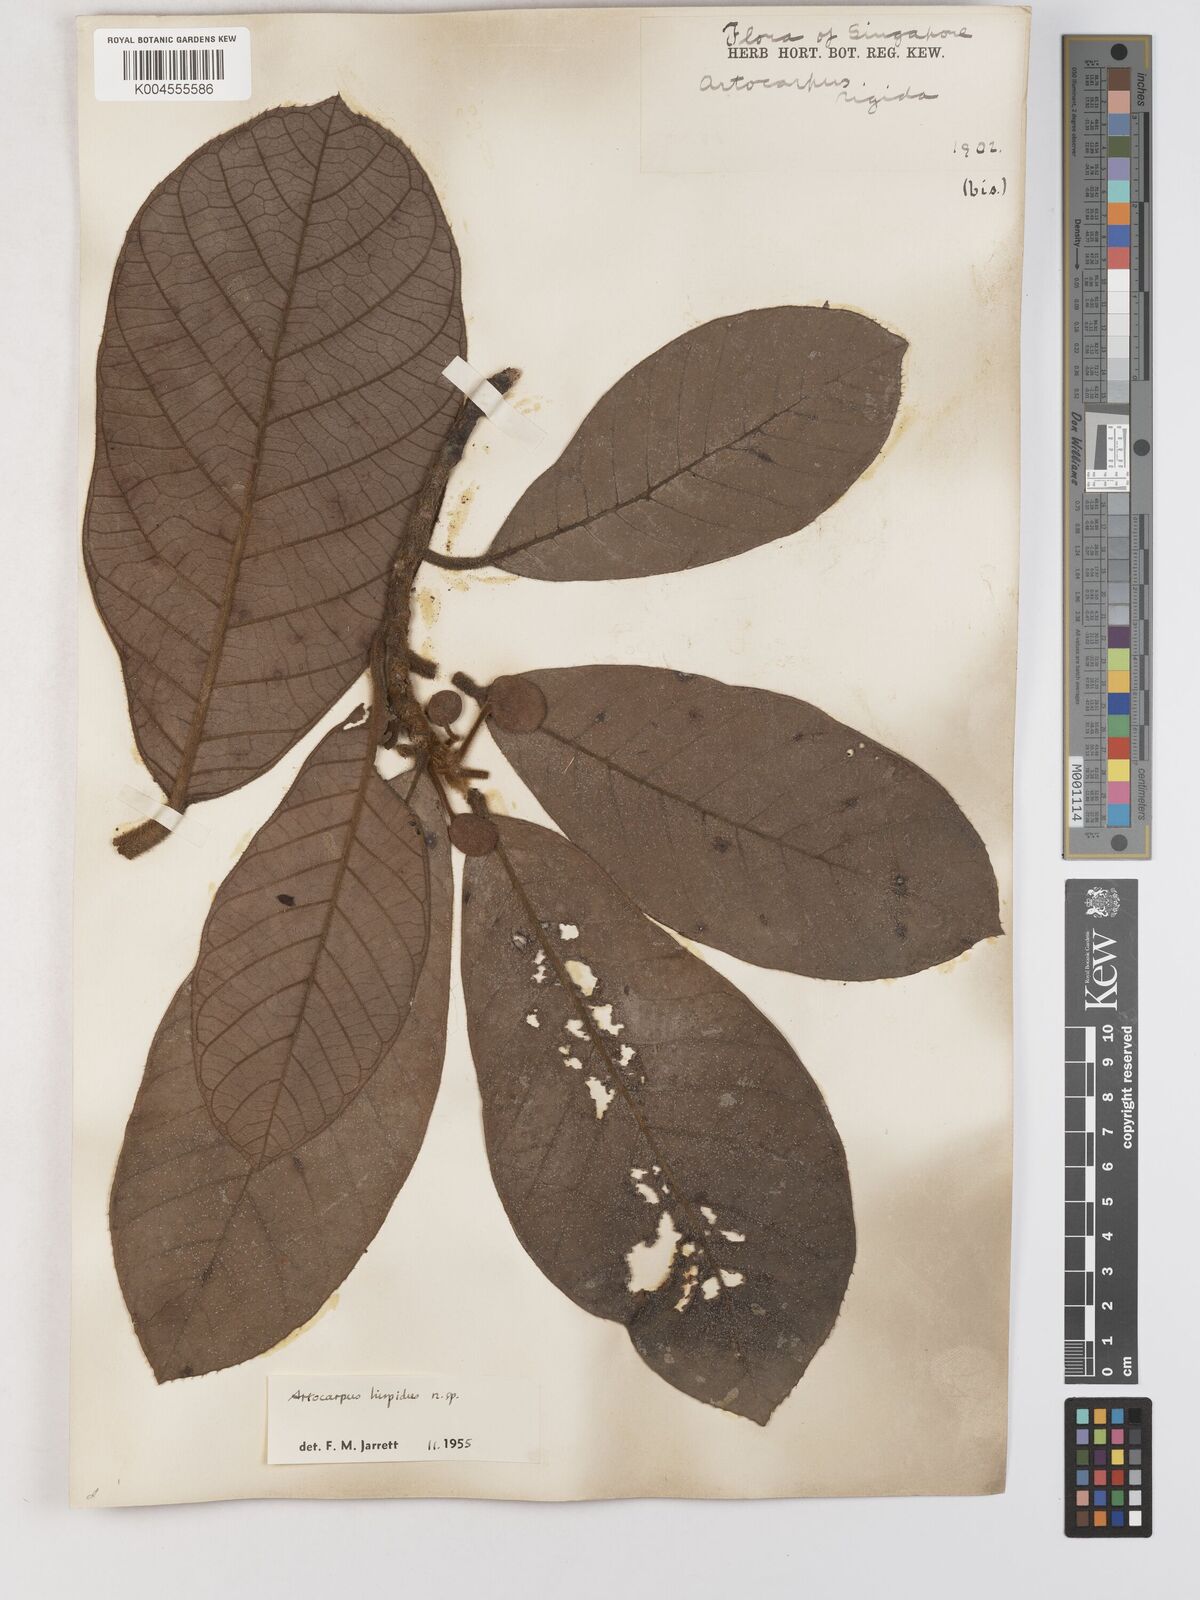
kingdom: Plantae
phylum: Tracheophyta
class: Magnoliopsida
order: Rosales
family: Moraceae
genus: Artocarpus
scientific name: Artocarpus hispidus
